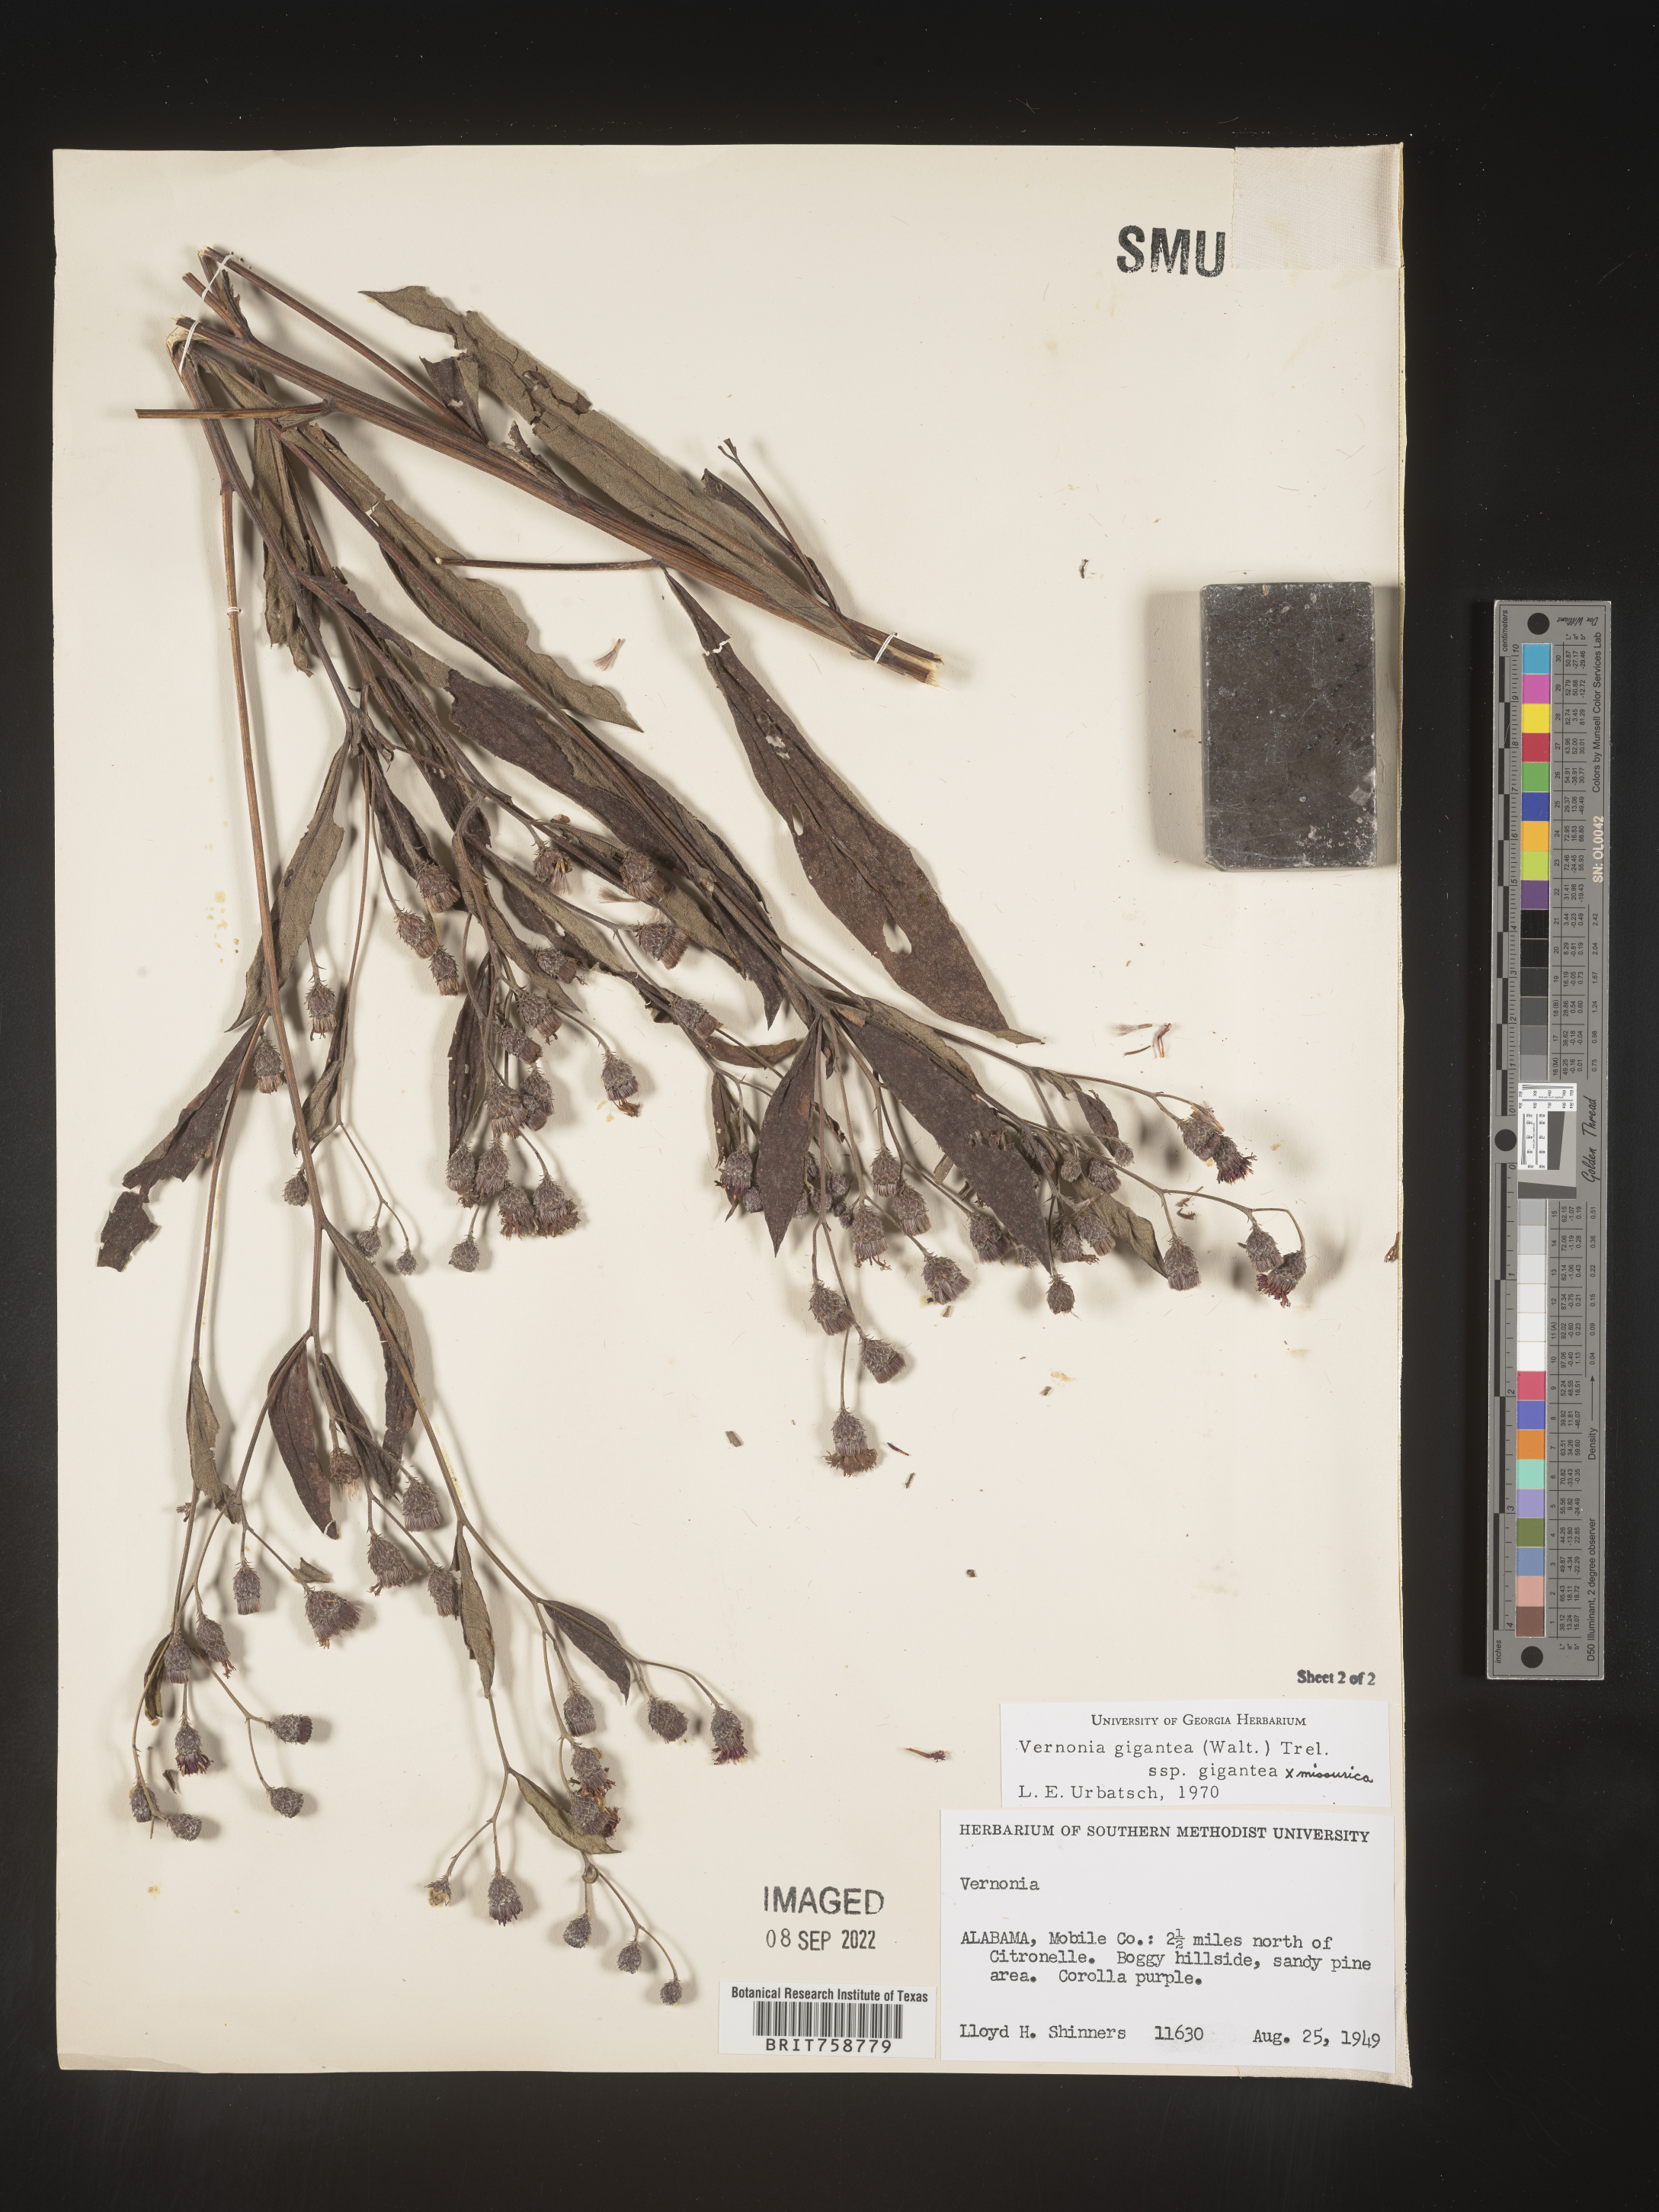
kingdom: Plantae
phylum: Tracheophyta
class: Magnoliopsida
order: Asterales
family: Asteraceae
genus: Vernonia
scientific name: Vernonia gigantea
